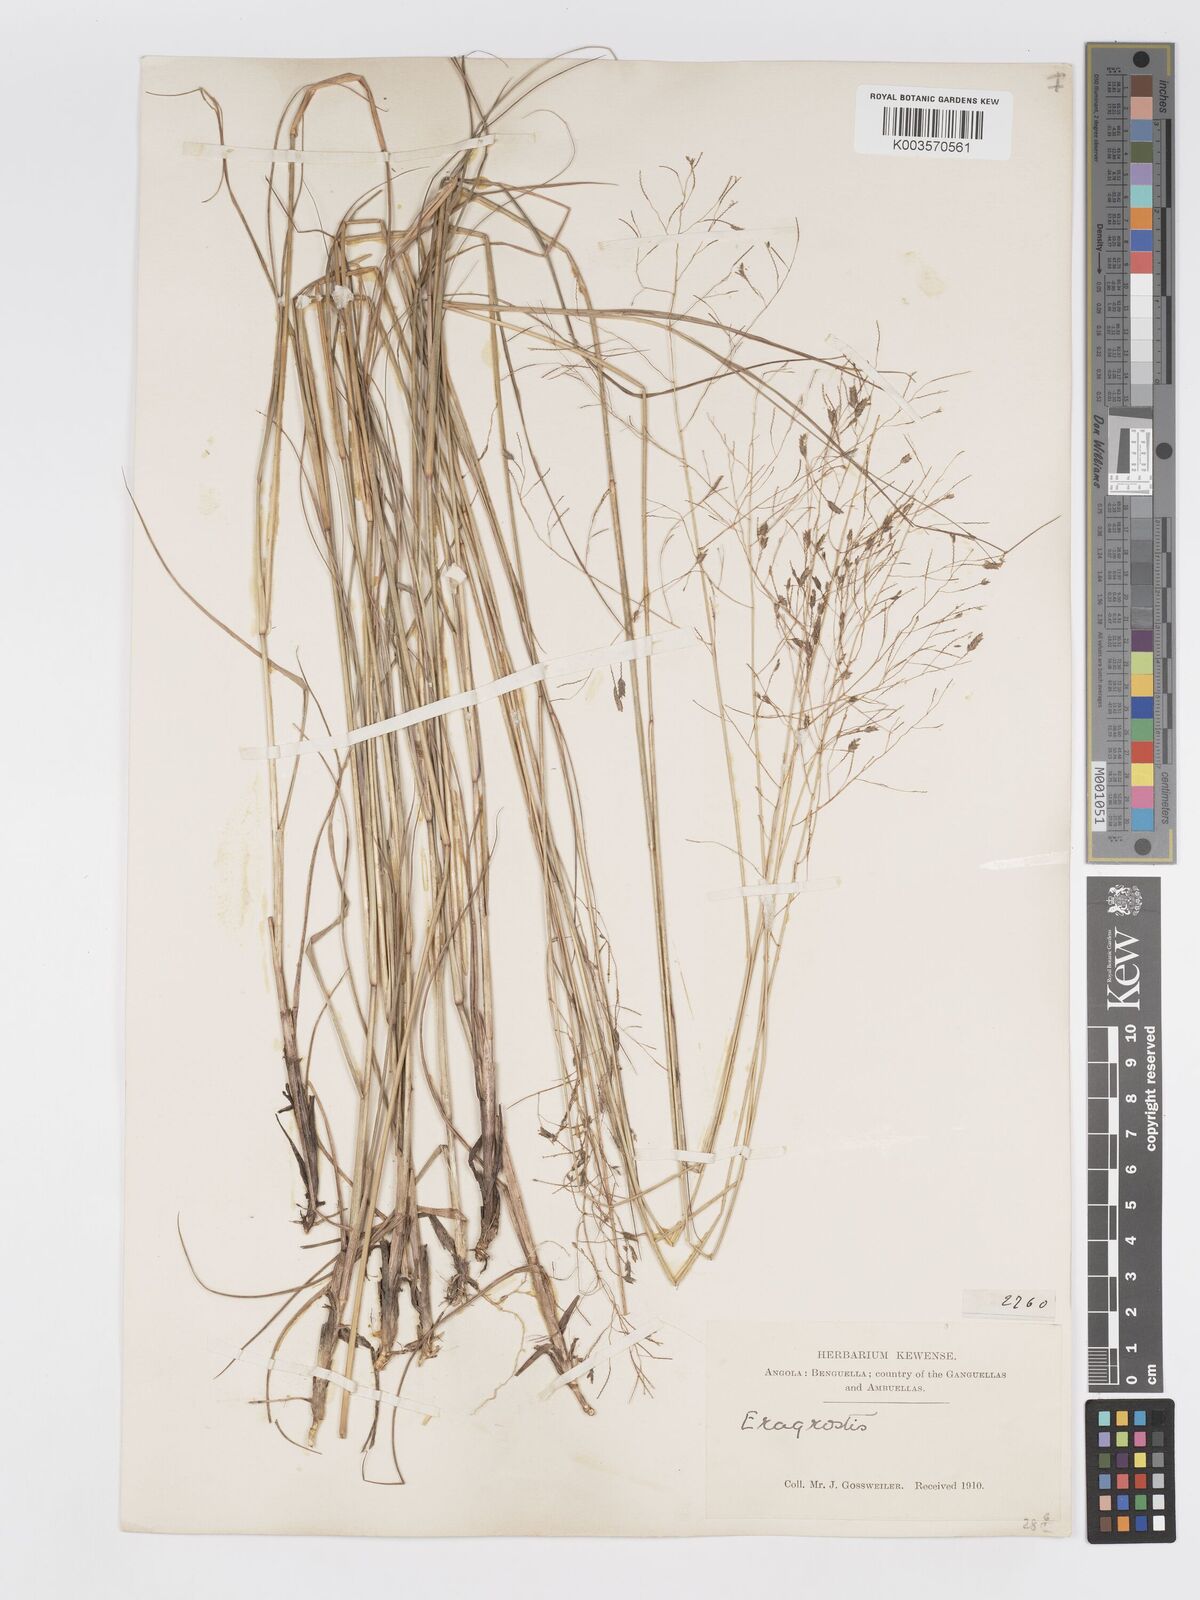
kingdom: Plantae
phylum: Tracheophyta
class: Liliopsida
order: Poales
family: Poaceae
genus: Eragrostis
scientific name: Eragrostis inamoena
